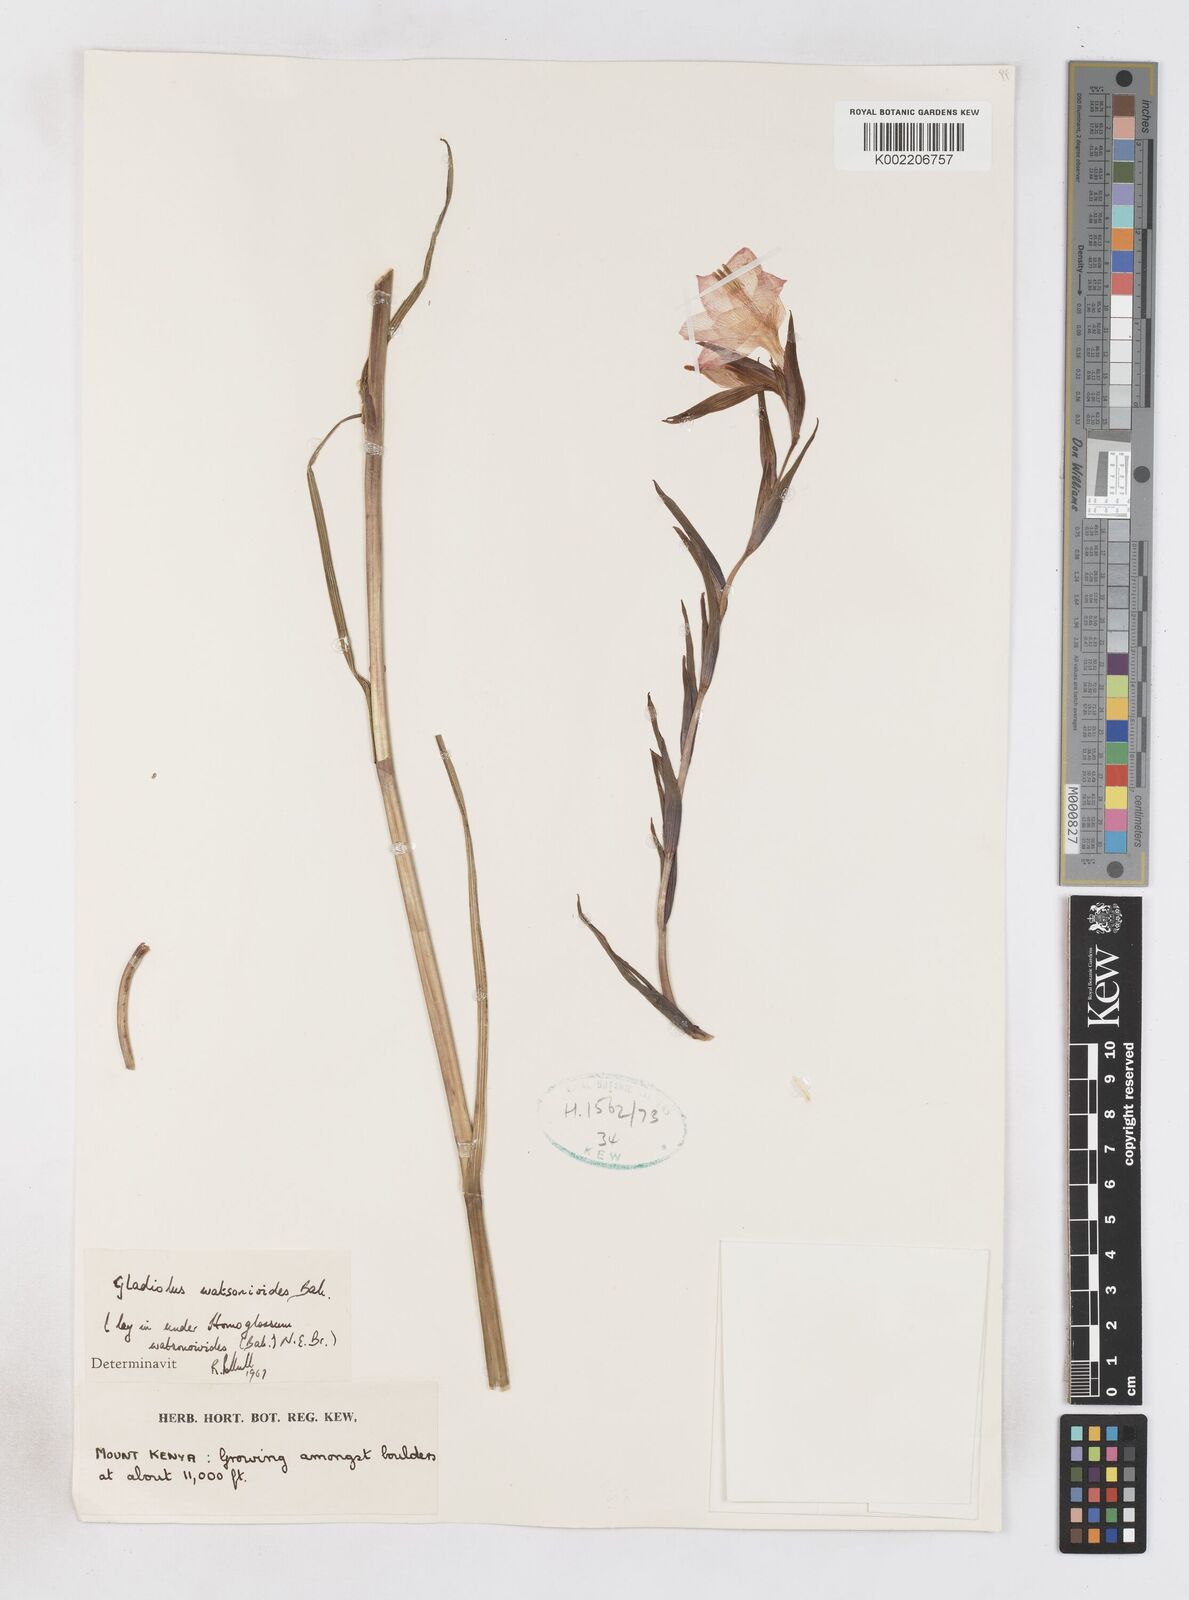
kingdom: Plantae
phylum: Tracheophyta
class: Liliopsida
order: Asparagales
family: Iridaceae
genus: Gladiolus
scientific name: Gladiolus watsonioides
